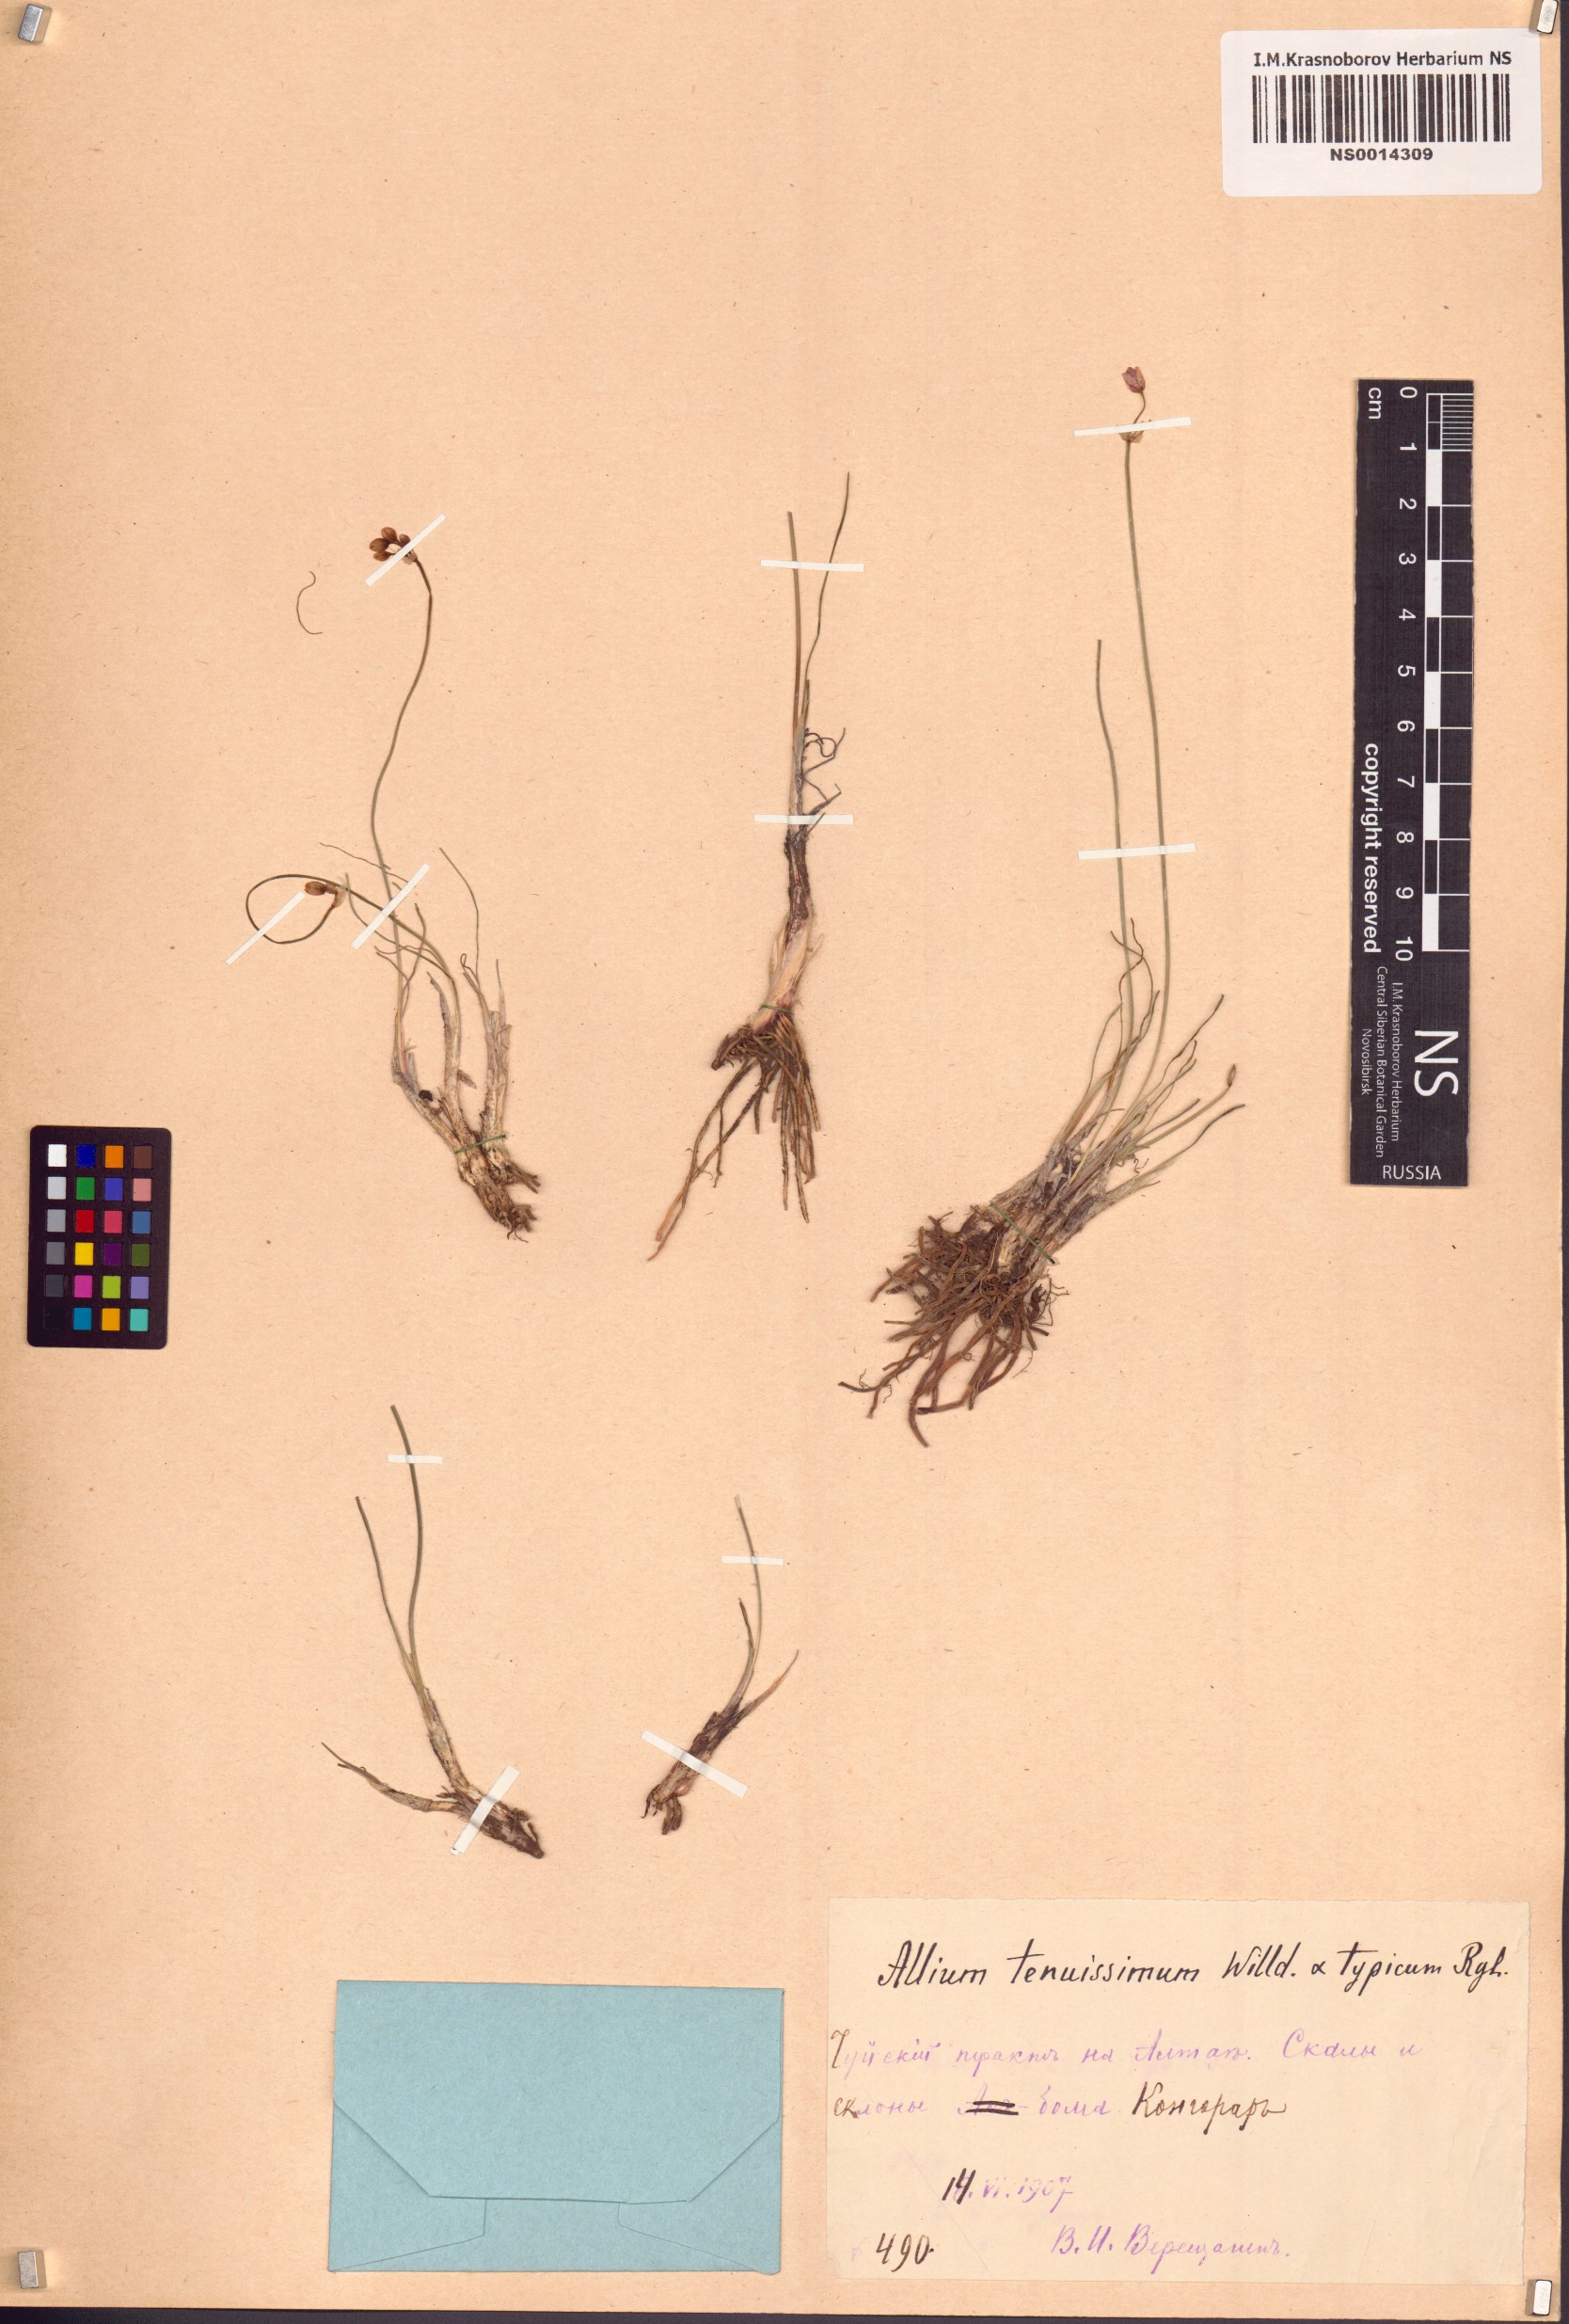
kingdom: Plantae
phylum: Tracheophyta
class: Liliopsida
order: Asparagales
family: Amaryllidaceae
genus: Allium
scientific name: Allium tenuissimum
